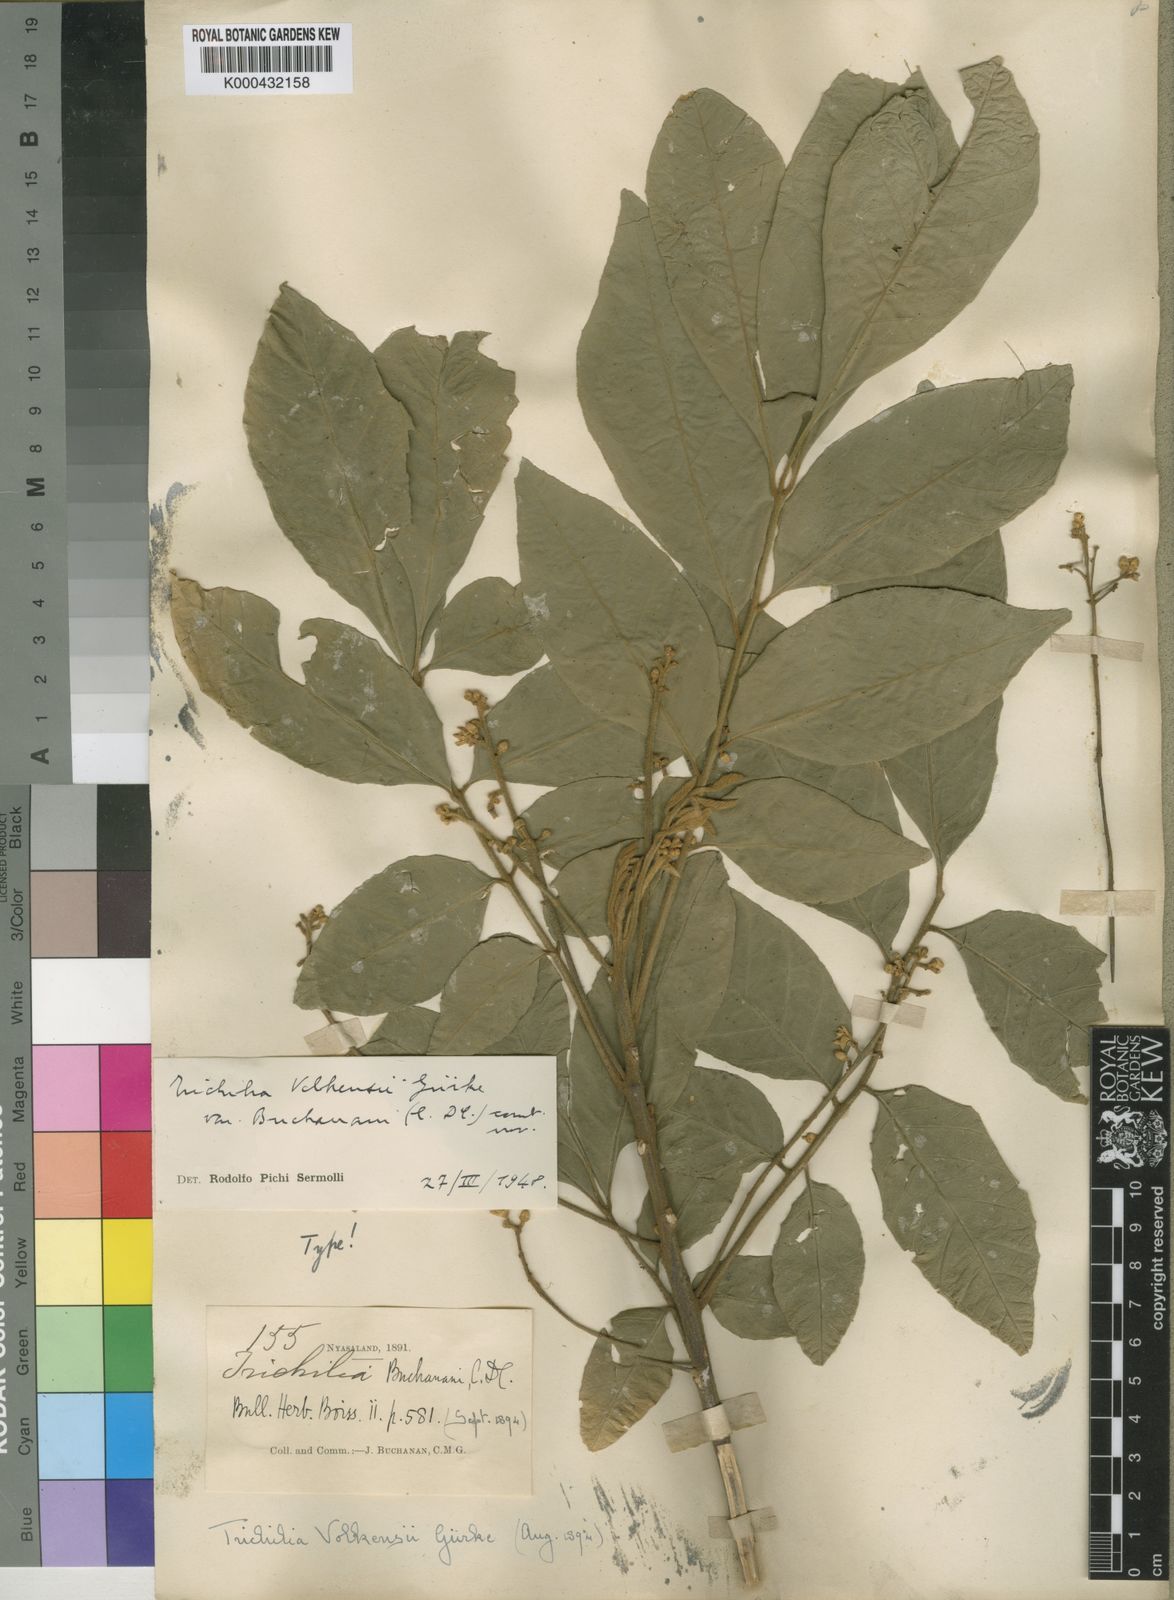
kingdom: Plantae
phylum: Tracheophyta
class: Magnoliopsida
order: Sapindales
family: Meliaceae
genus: Lepidotrichilia
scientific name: Lepidotrichilia
